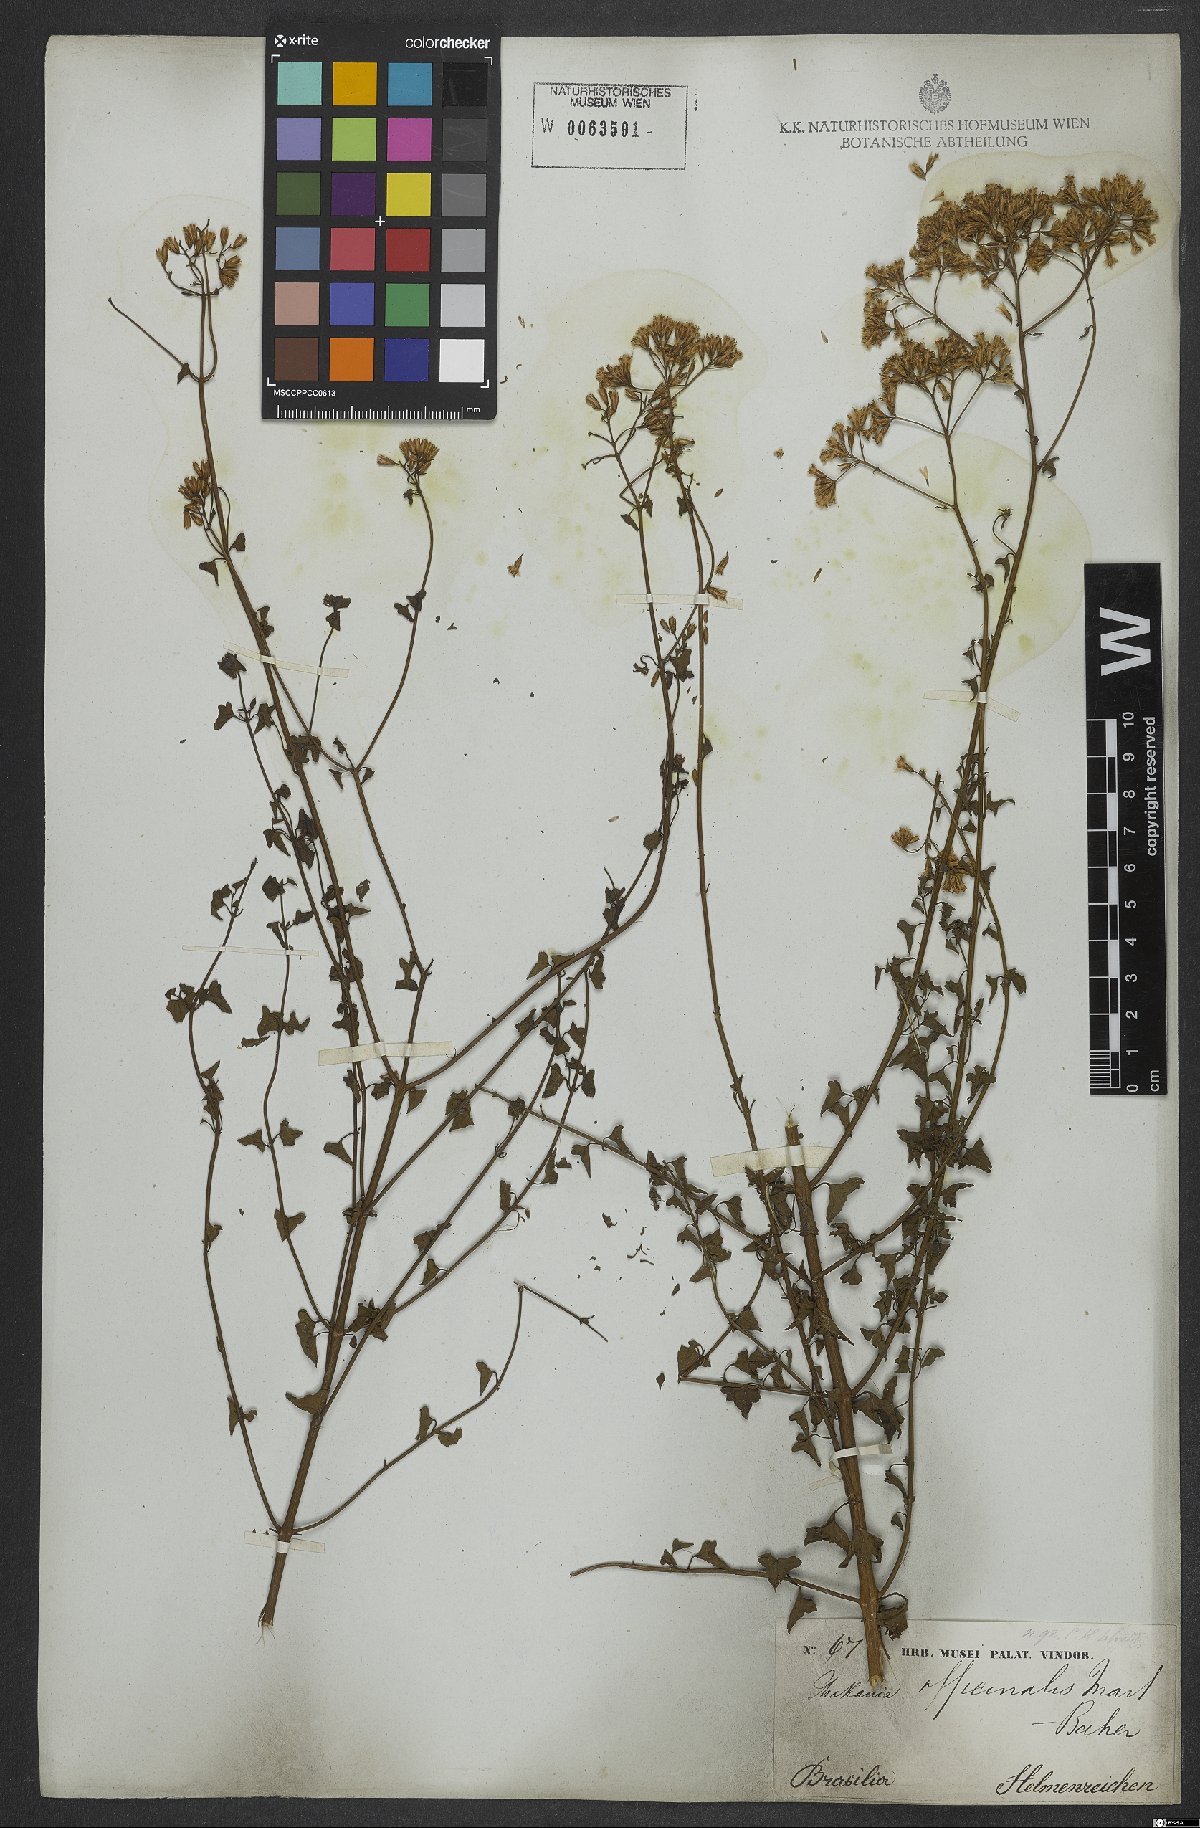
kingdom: Plantae
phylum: Tracheophyta
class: Magnoliopsida
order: Asterales
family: Asteraceae
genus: Mikania
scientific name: Mikania officinalis
